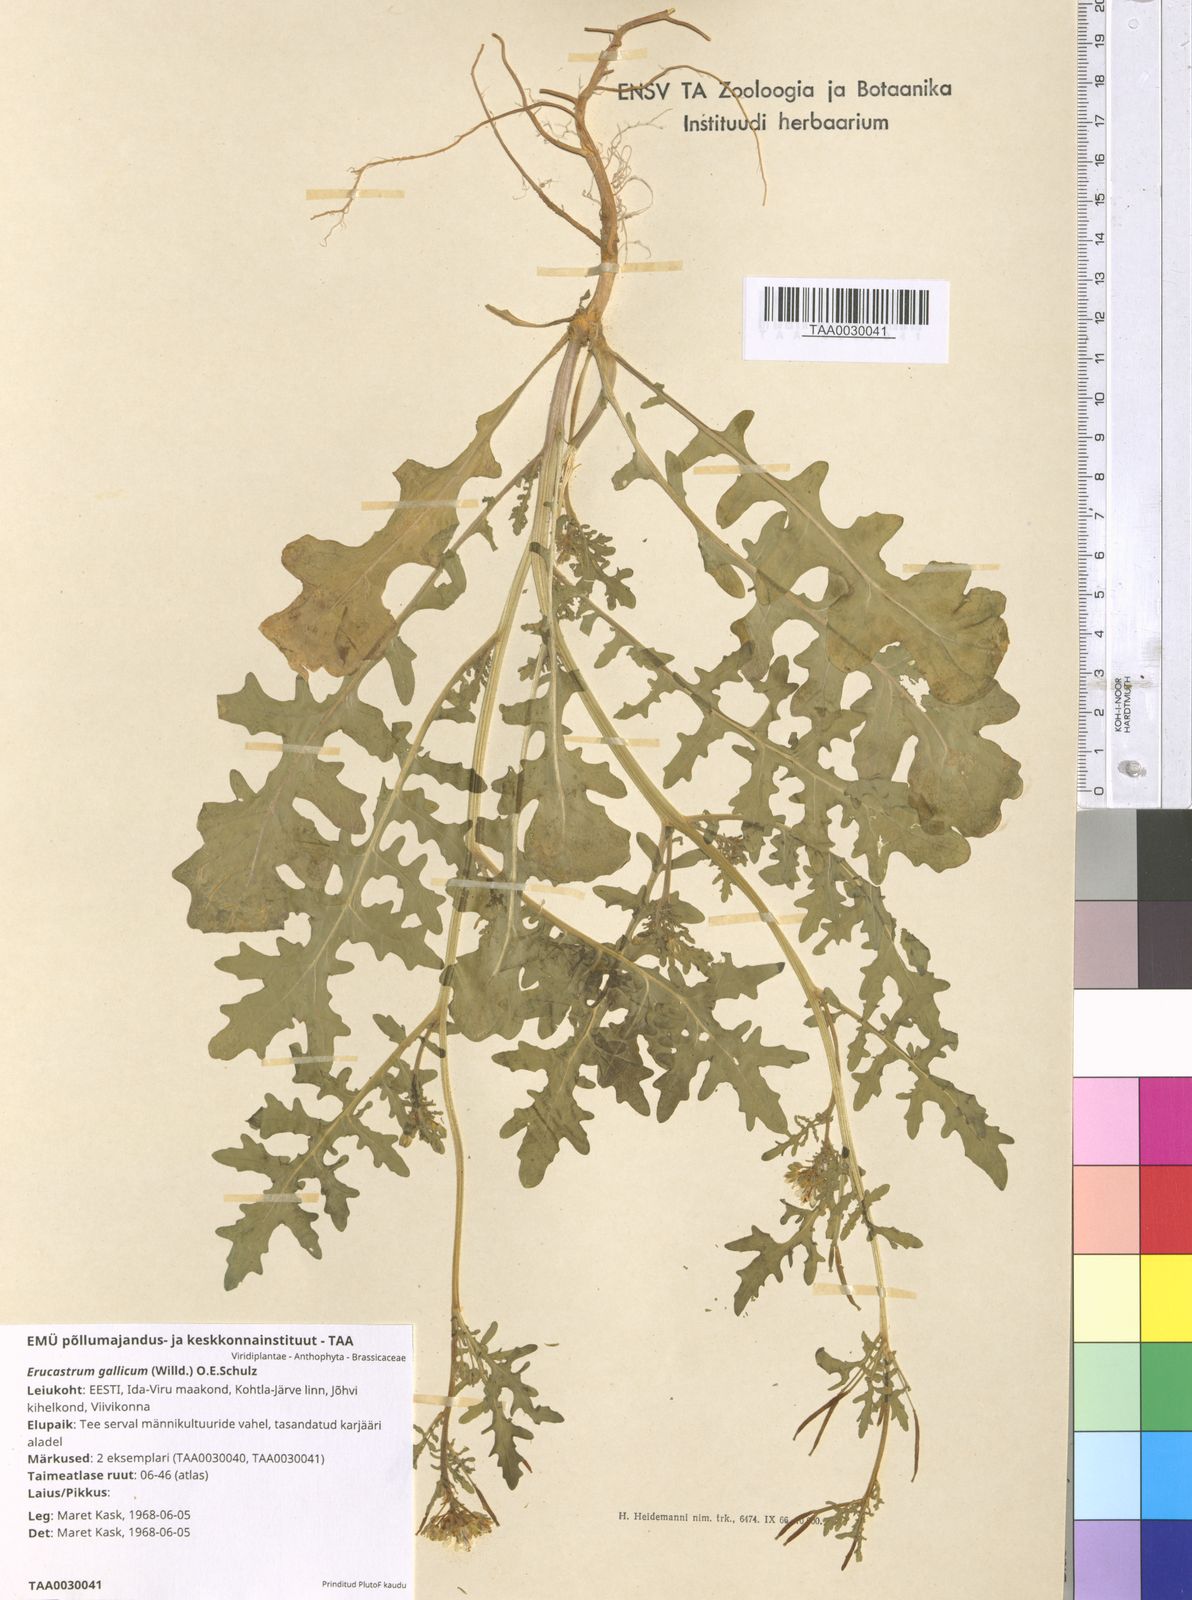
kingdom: Plantae
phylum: Tracheophyta
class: Magnoliopsida
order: Brassicales
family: Brassicaceae
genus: Erucastrum
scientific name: Erucastrum gallicum
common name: Hairy rocket
